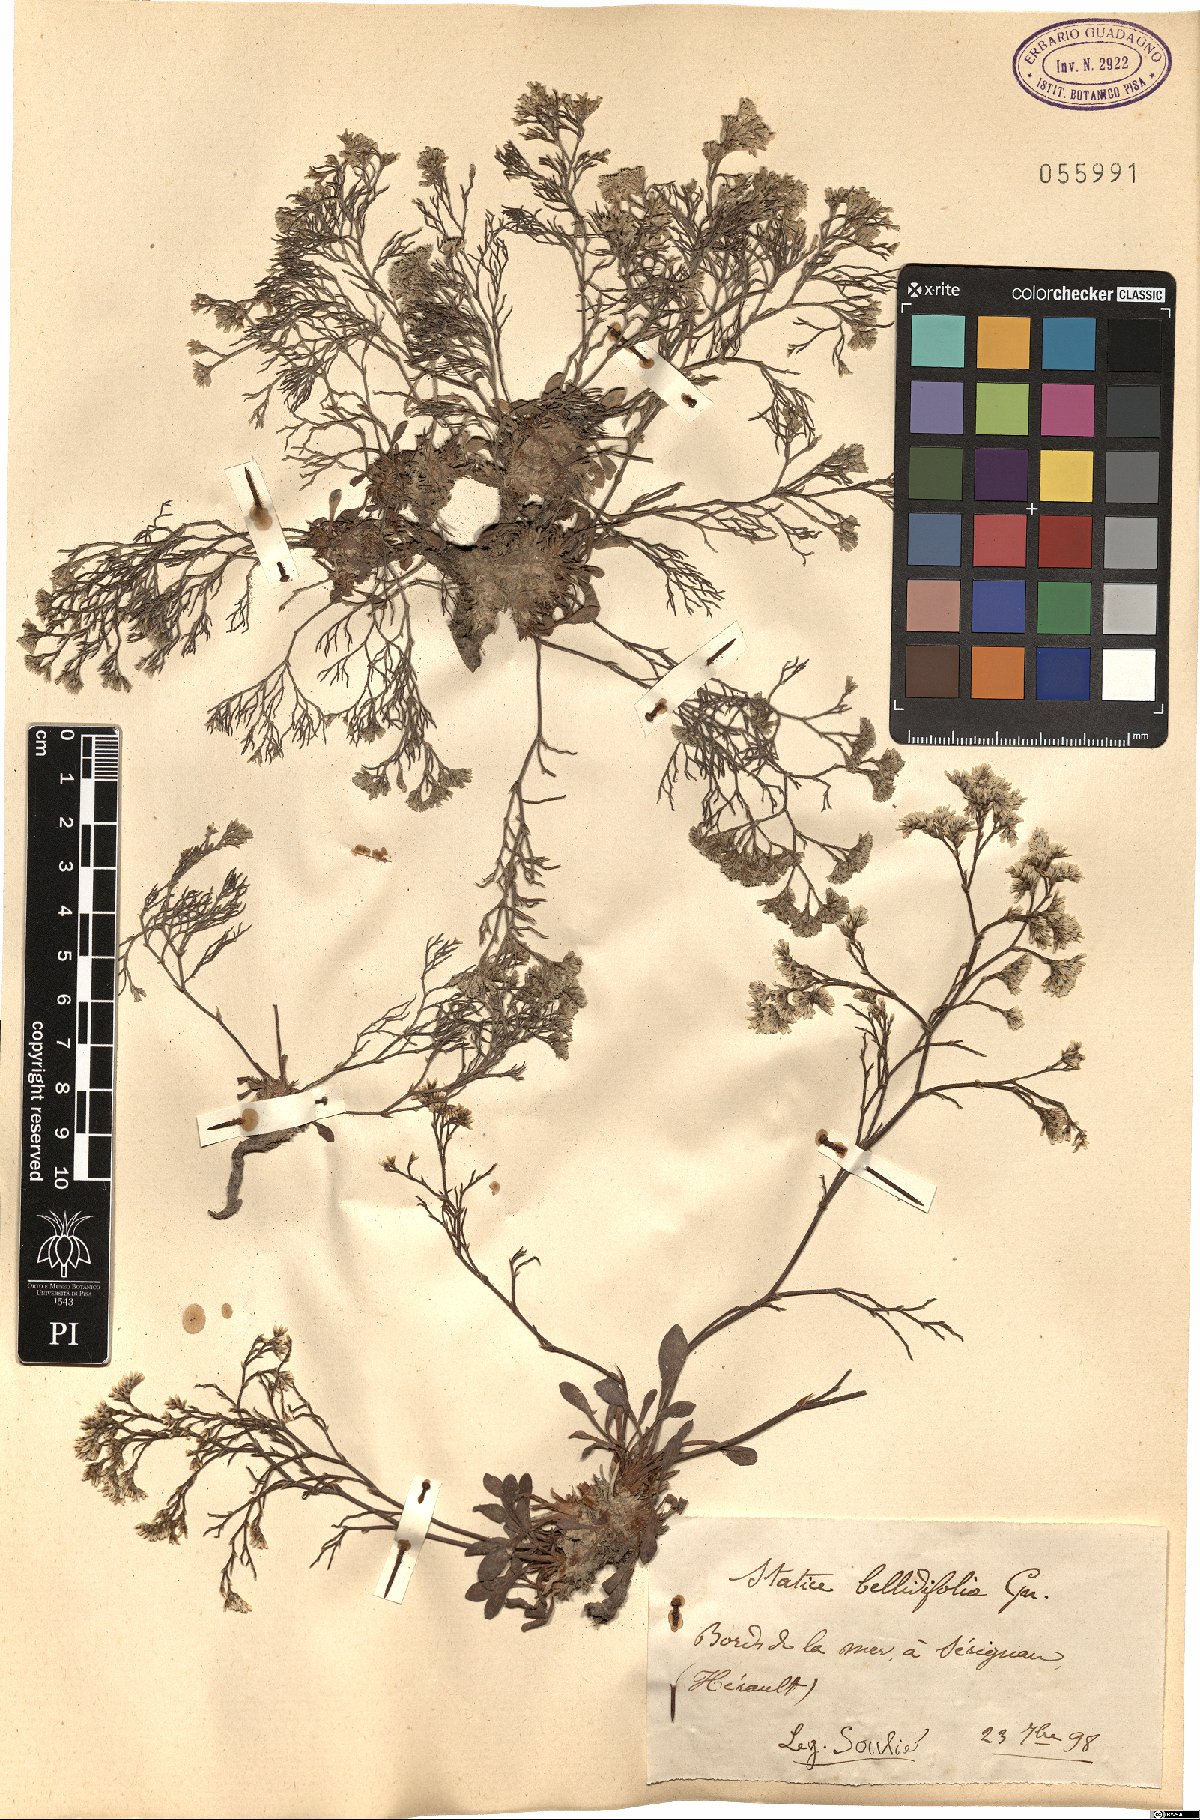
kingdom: Plantae
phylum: Tracheophyta
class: Magnoliopsida
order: Caryophyllales
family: Plumbaginaceae
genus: Limonium
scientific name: Limonium bellidifolium
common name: Matted sea-lavender
